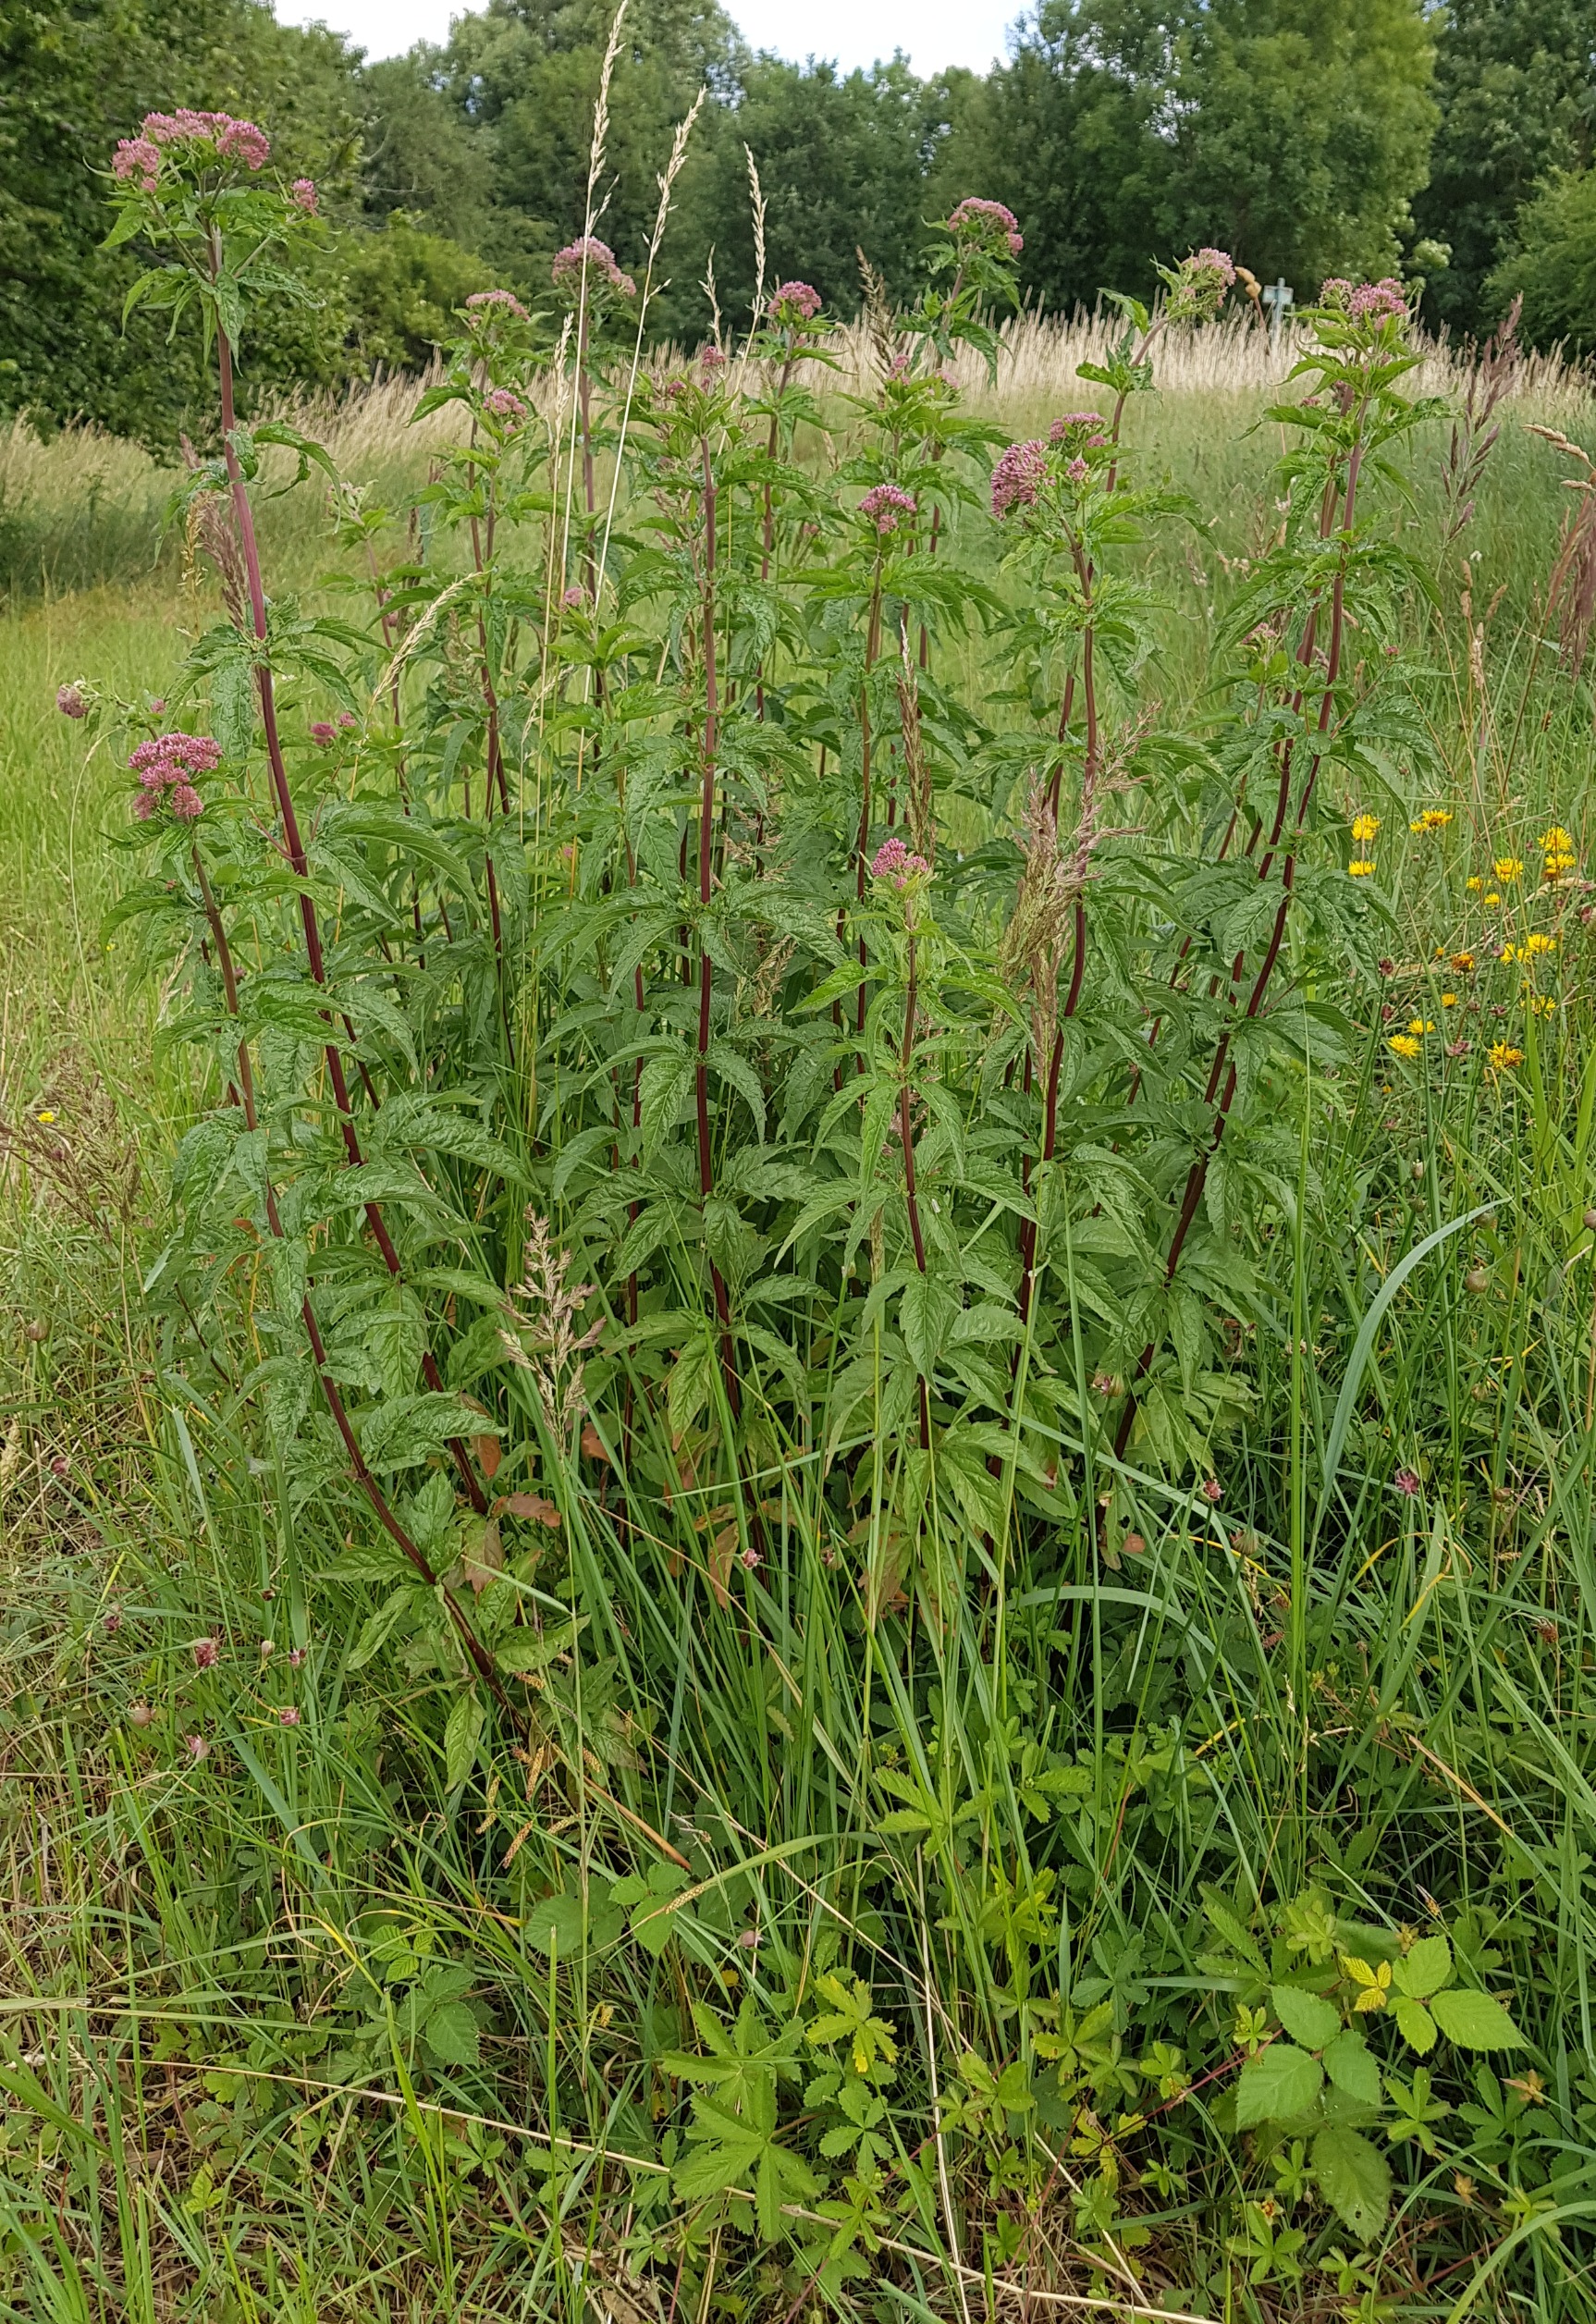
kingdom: Plantae
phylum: Tracheophyta
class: Magnoliopsida
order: Asterales
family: Asteraceae
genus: Eupatorium
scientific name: Eupatorium cannabinum
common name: Hjortetrøst
